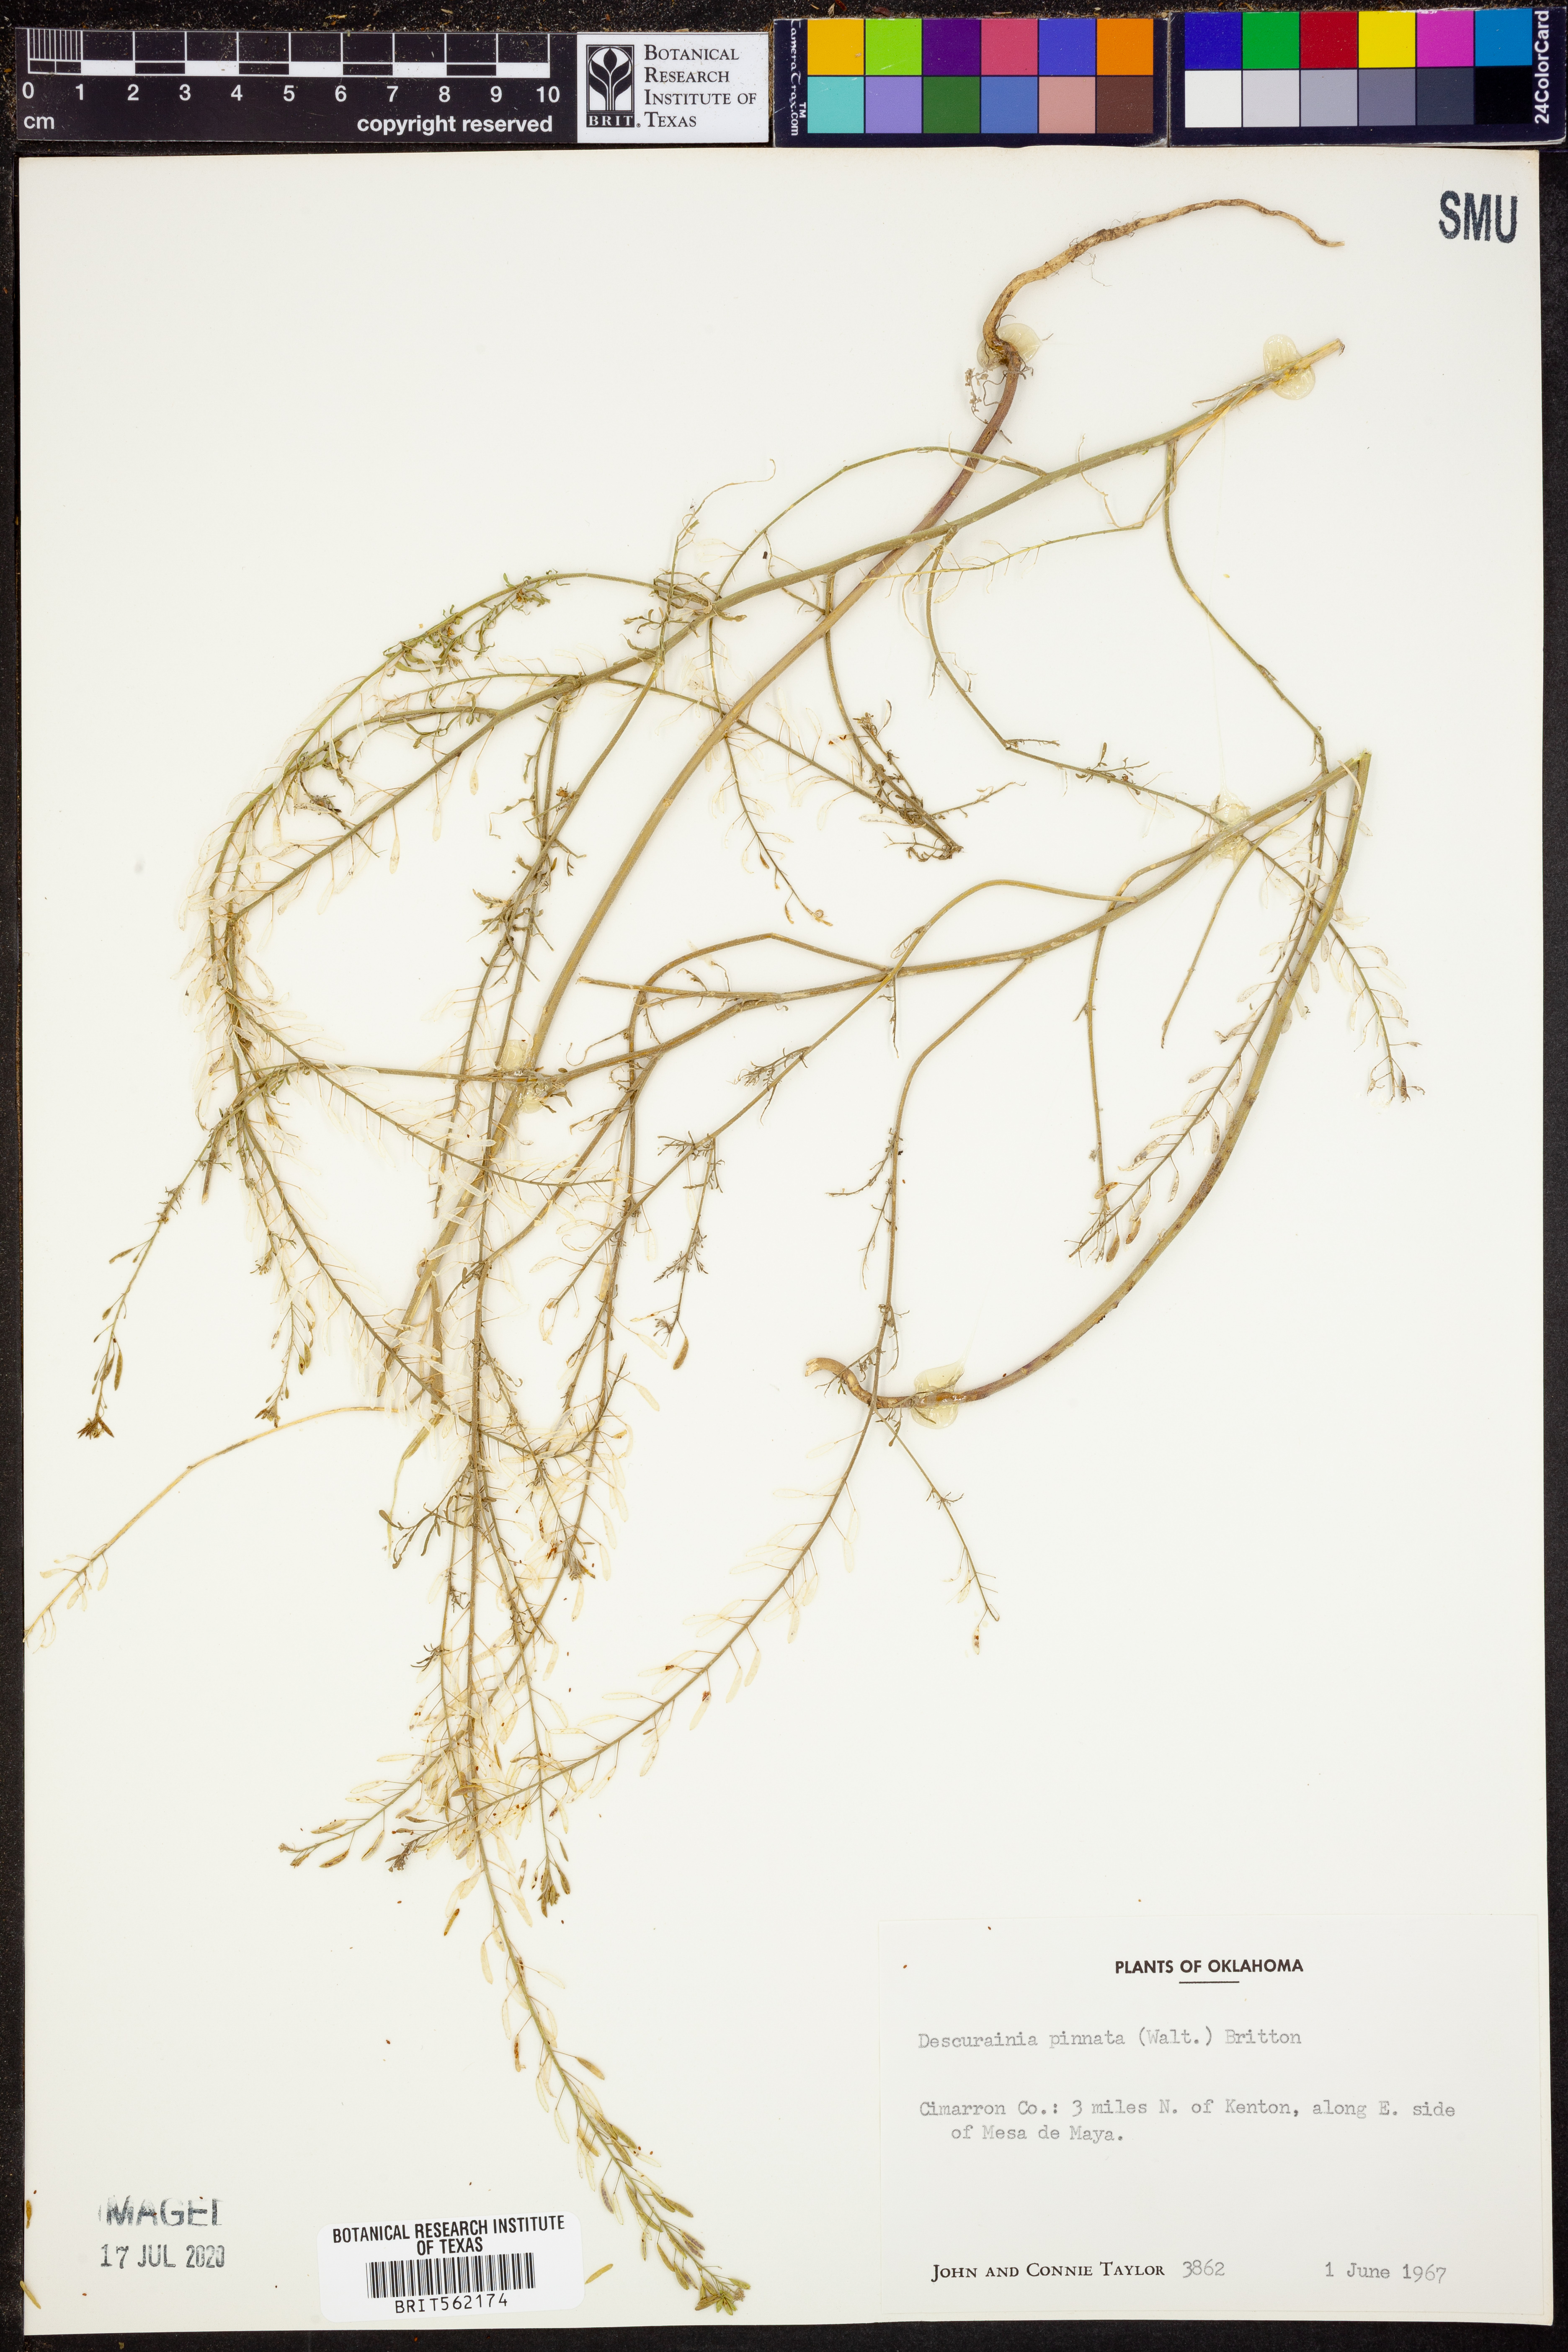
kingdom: Plantae
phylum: Tracheophyta
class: Magnoliopsida
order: Brassicales
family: Brassicaceae
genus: Descurainia
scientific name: Descurainia pinnata
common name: Western tansy mustard
